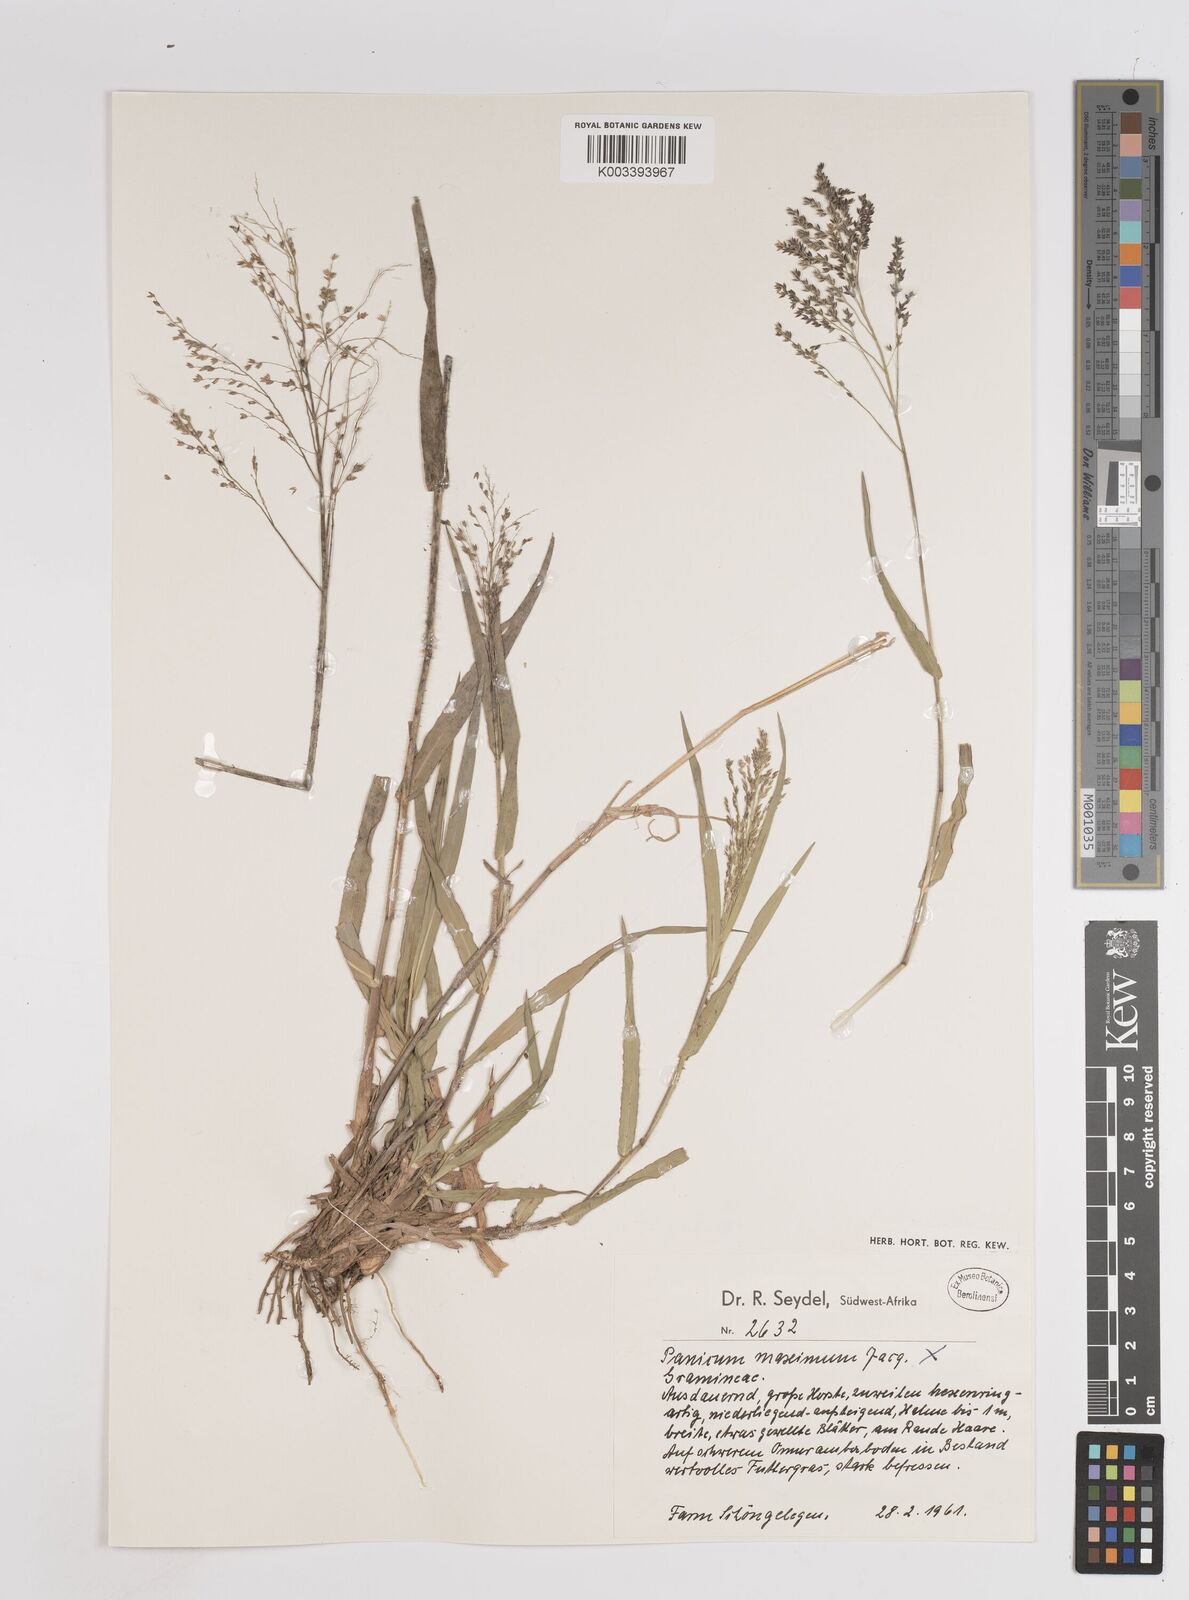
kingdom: Plantae
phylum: Tracheophyta
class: Liliopsida
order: Poales
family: Poaceae
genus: Panicum
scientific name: Panicum coloratum
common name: Kleingrass
